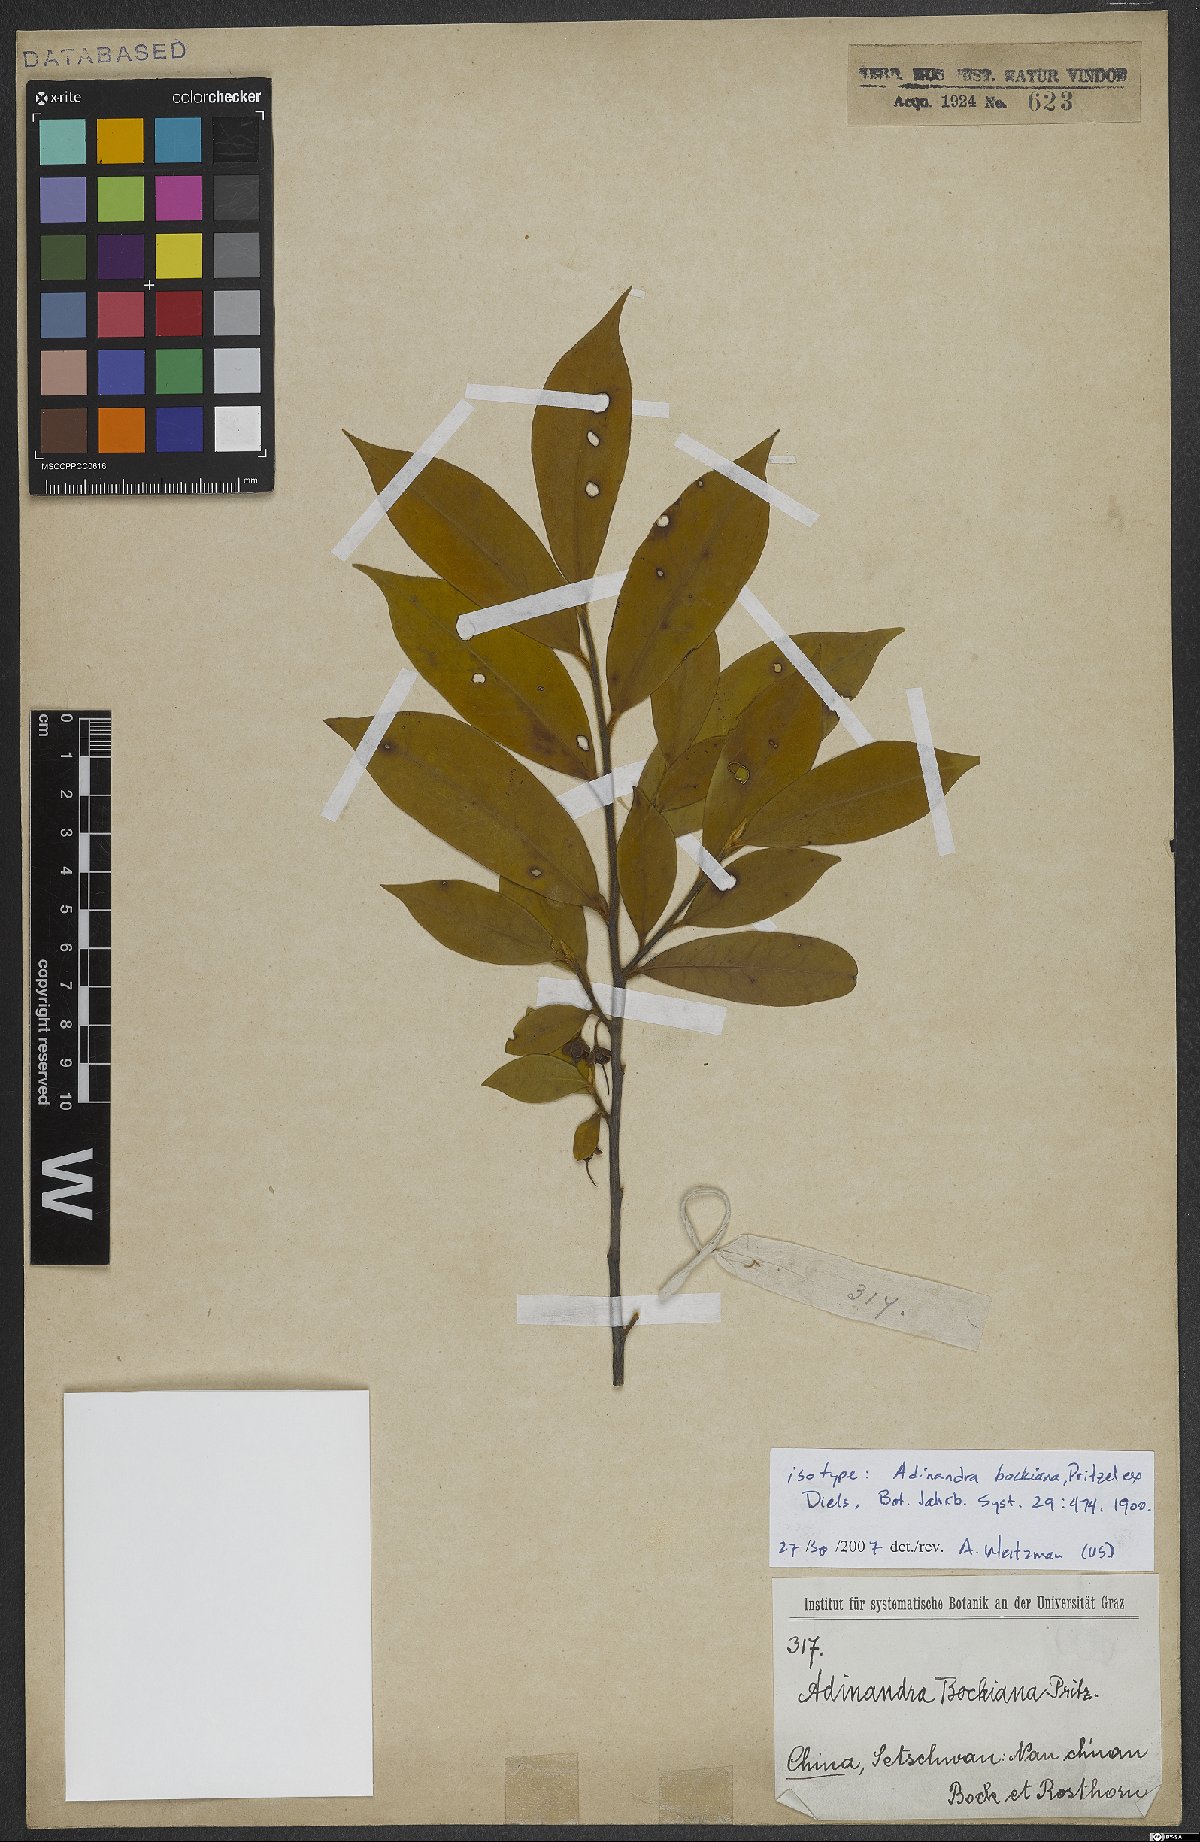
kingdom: Plantae
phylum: Tracheophyta
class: Magnoliopsida
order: Ericales
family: Pentaphylacaceae
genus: Adinandra
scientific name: Adinandra bockiana
